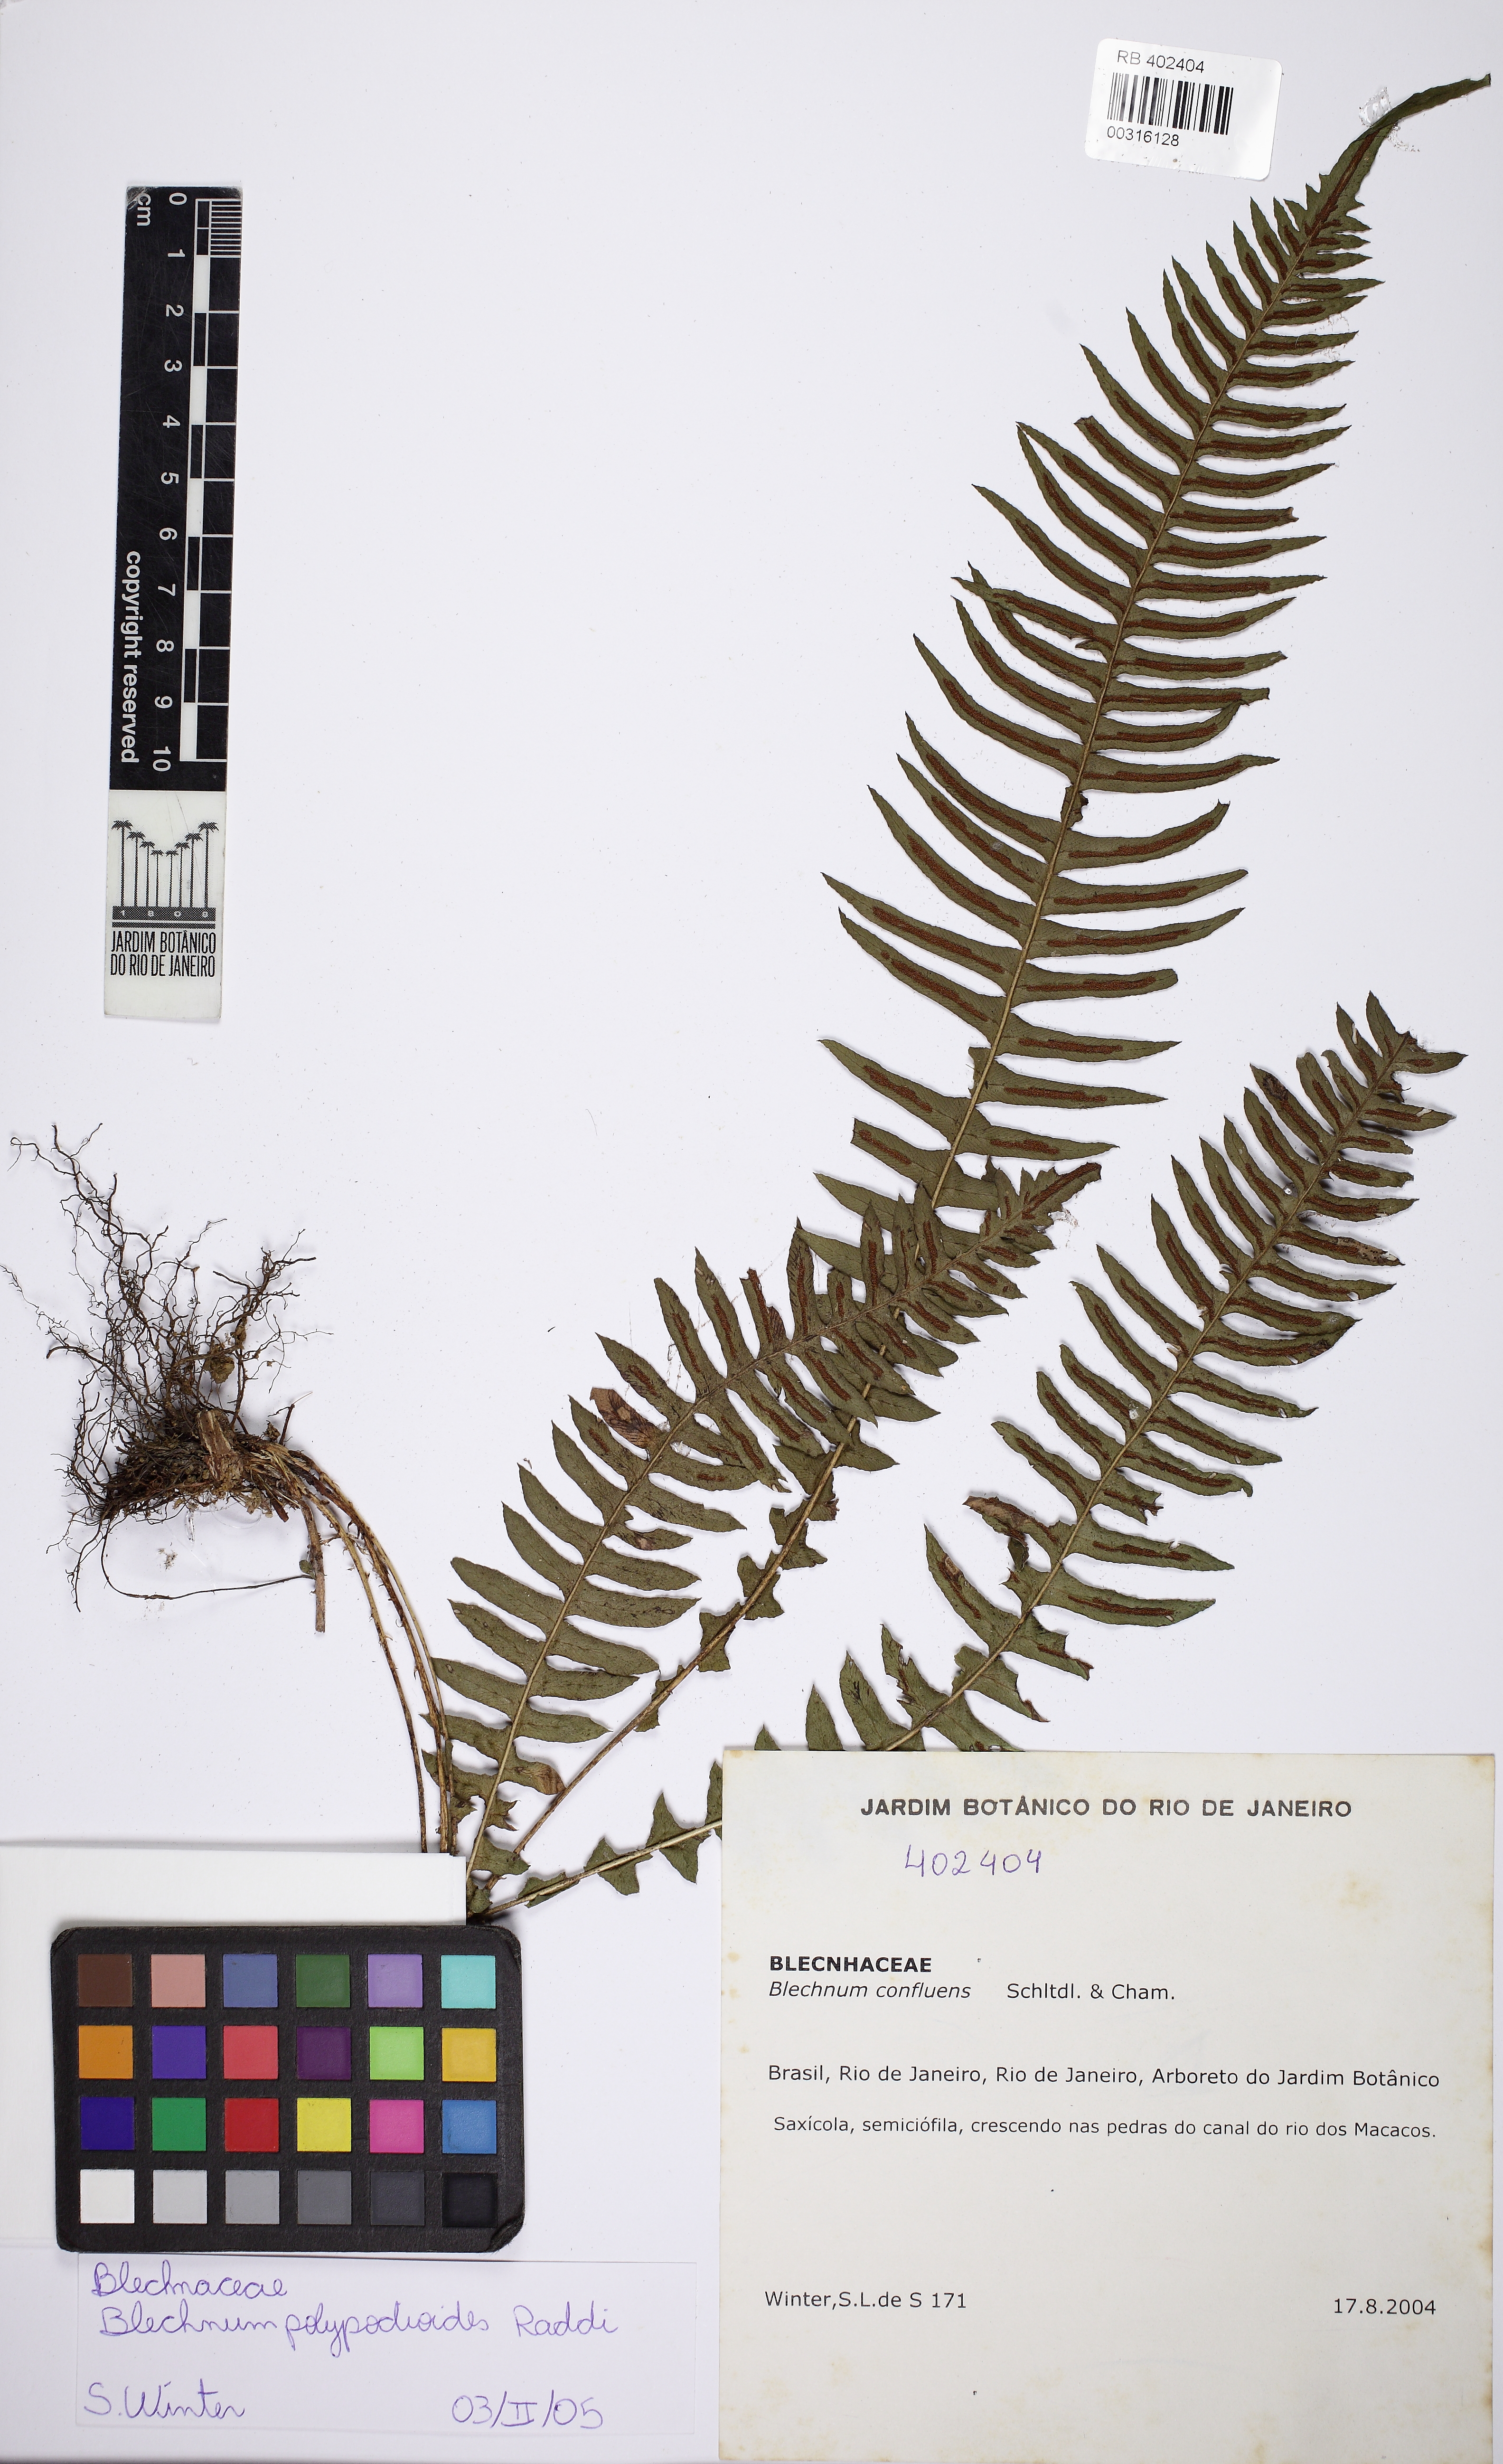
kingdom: Plantae
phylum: Tracheophyta
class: Polypodiopsida
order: Polypodiales
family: Blechnaceae
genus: Blechnum
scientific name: Blechnum polypodioides
